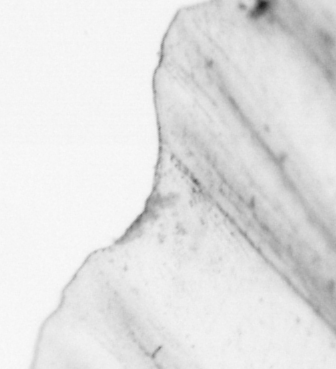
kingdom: Animalia
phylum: Chordata
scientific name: Chordata
